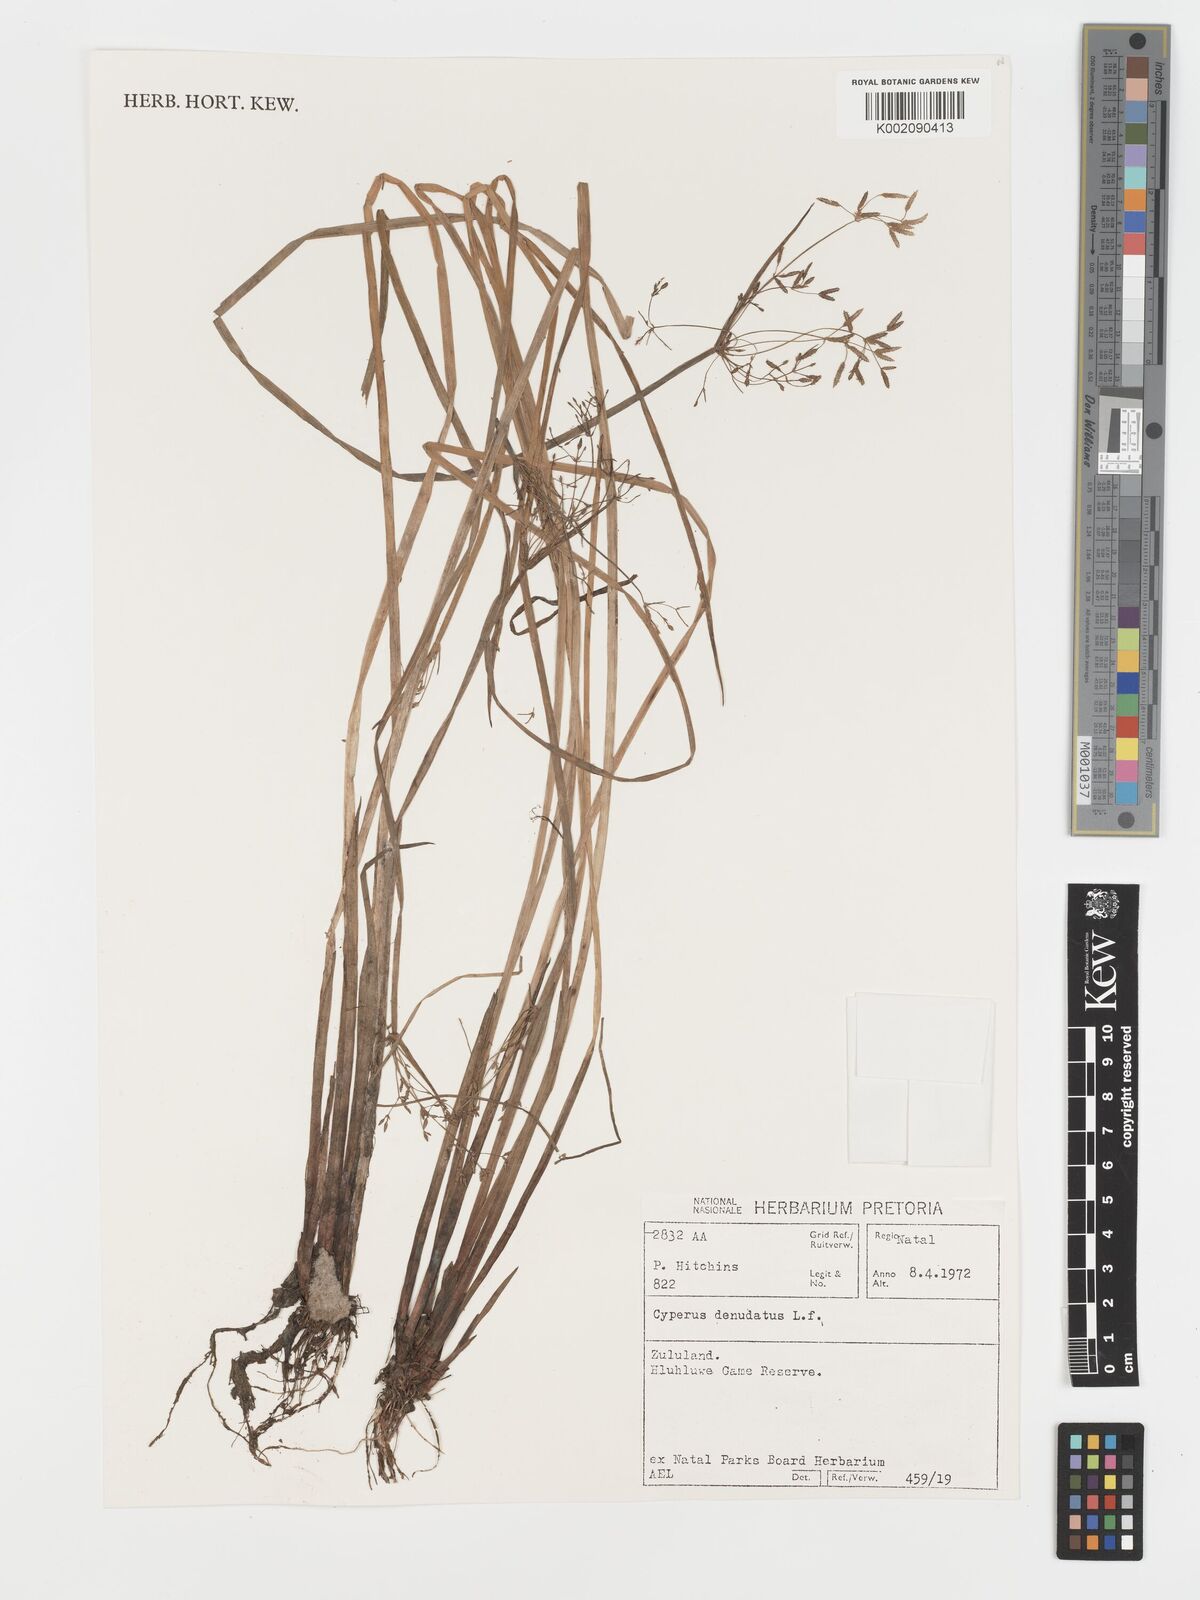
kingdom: Plantae
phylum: Tracheophyta
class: Liliopsida
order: Poales
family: Cyperaceae
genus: Cyperus
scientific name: Cyperus denudatus
